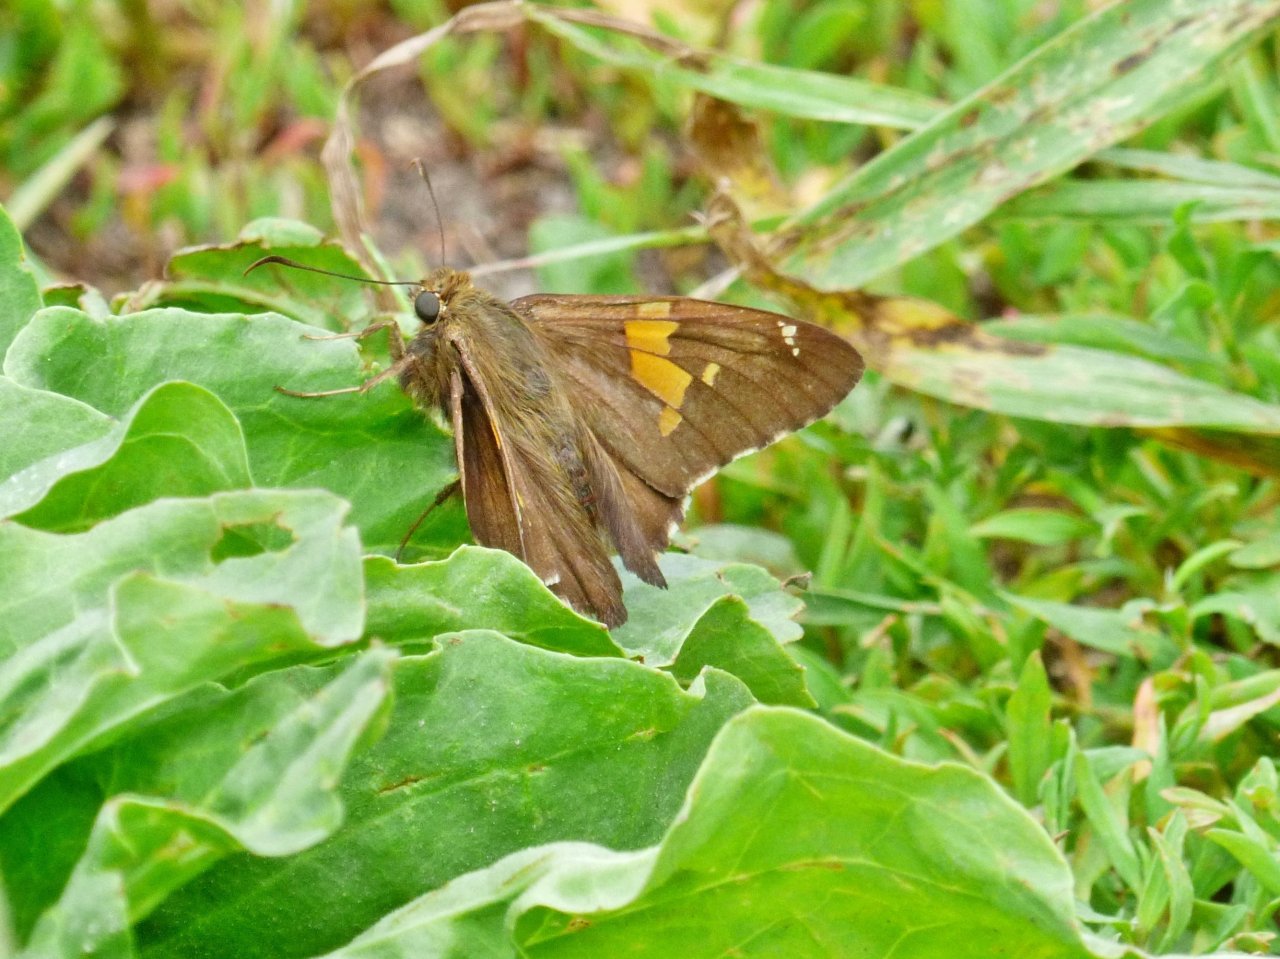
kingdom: Animalia
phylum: Arthropoda
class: Insecta
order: Lepidoptera
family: Hesperiidae
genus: Epargyreus
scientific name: Epargyreus clarus
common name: Silver-spotted Skipper
